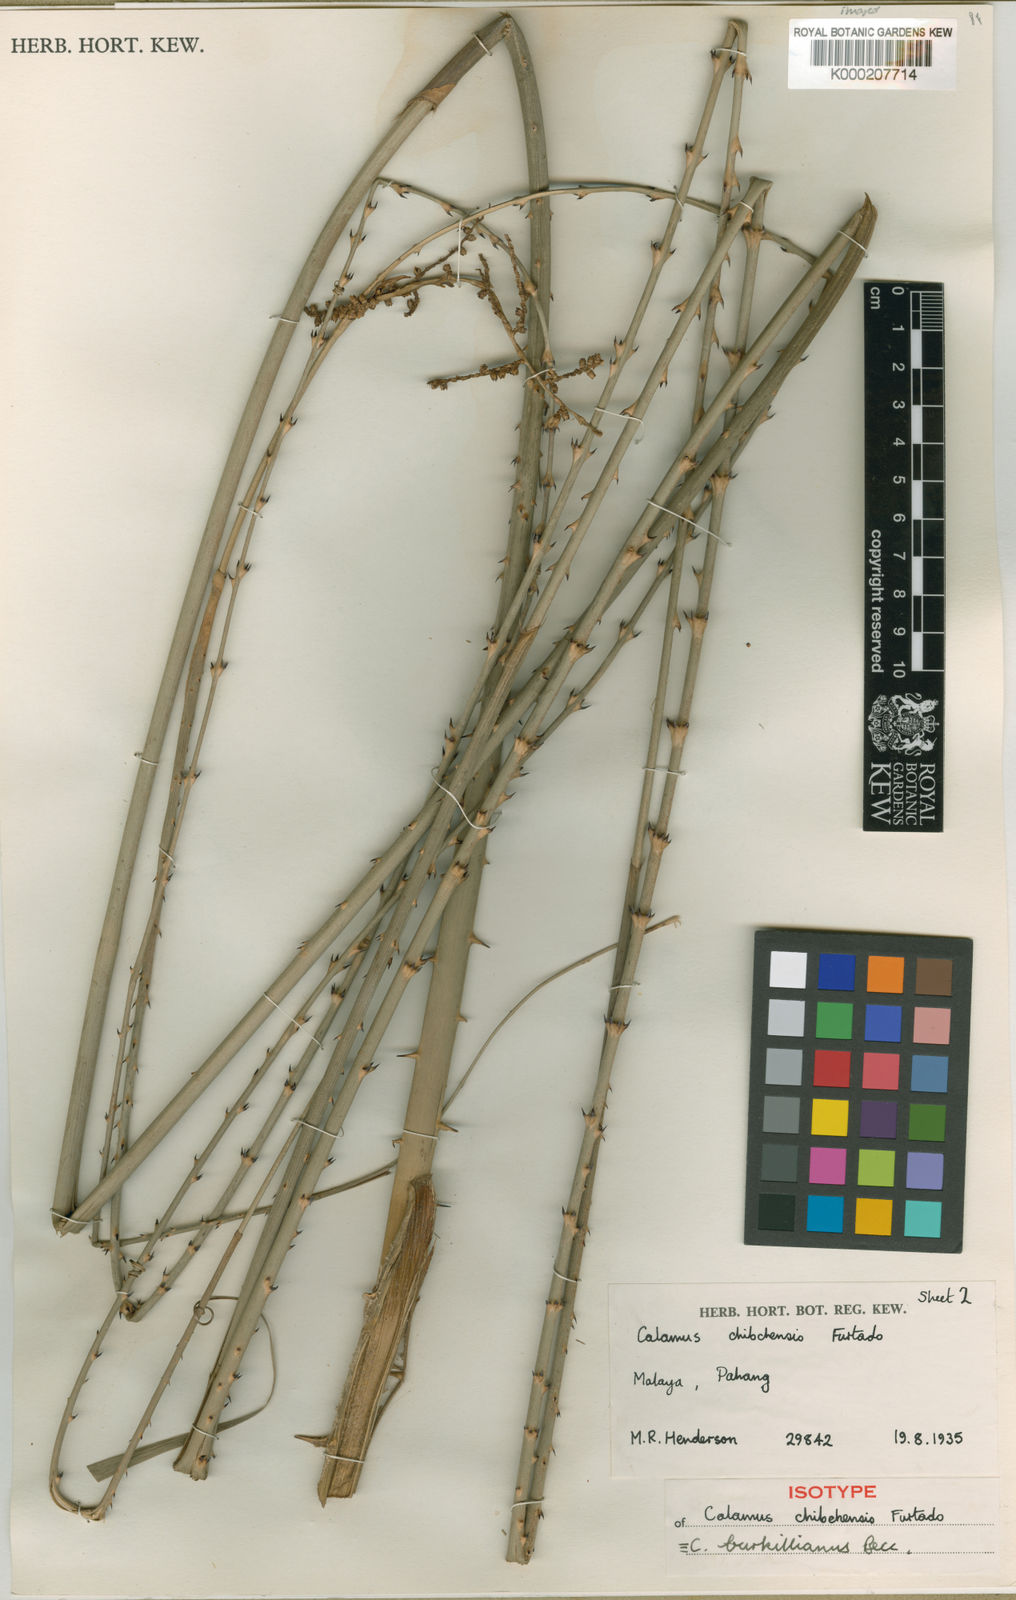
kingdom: Plantae
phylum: Tracheophyta
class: Liliopsida
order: Arecales
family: Arecaceae
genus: Calamus
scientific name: Calamus burkillianus
